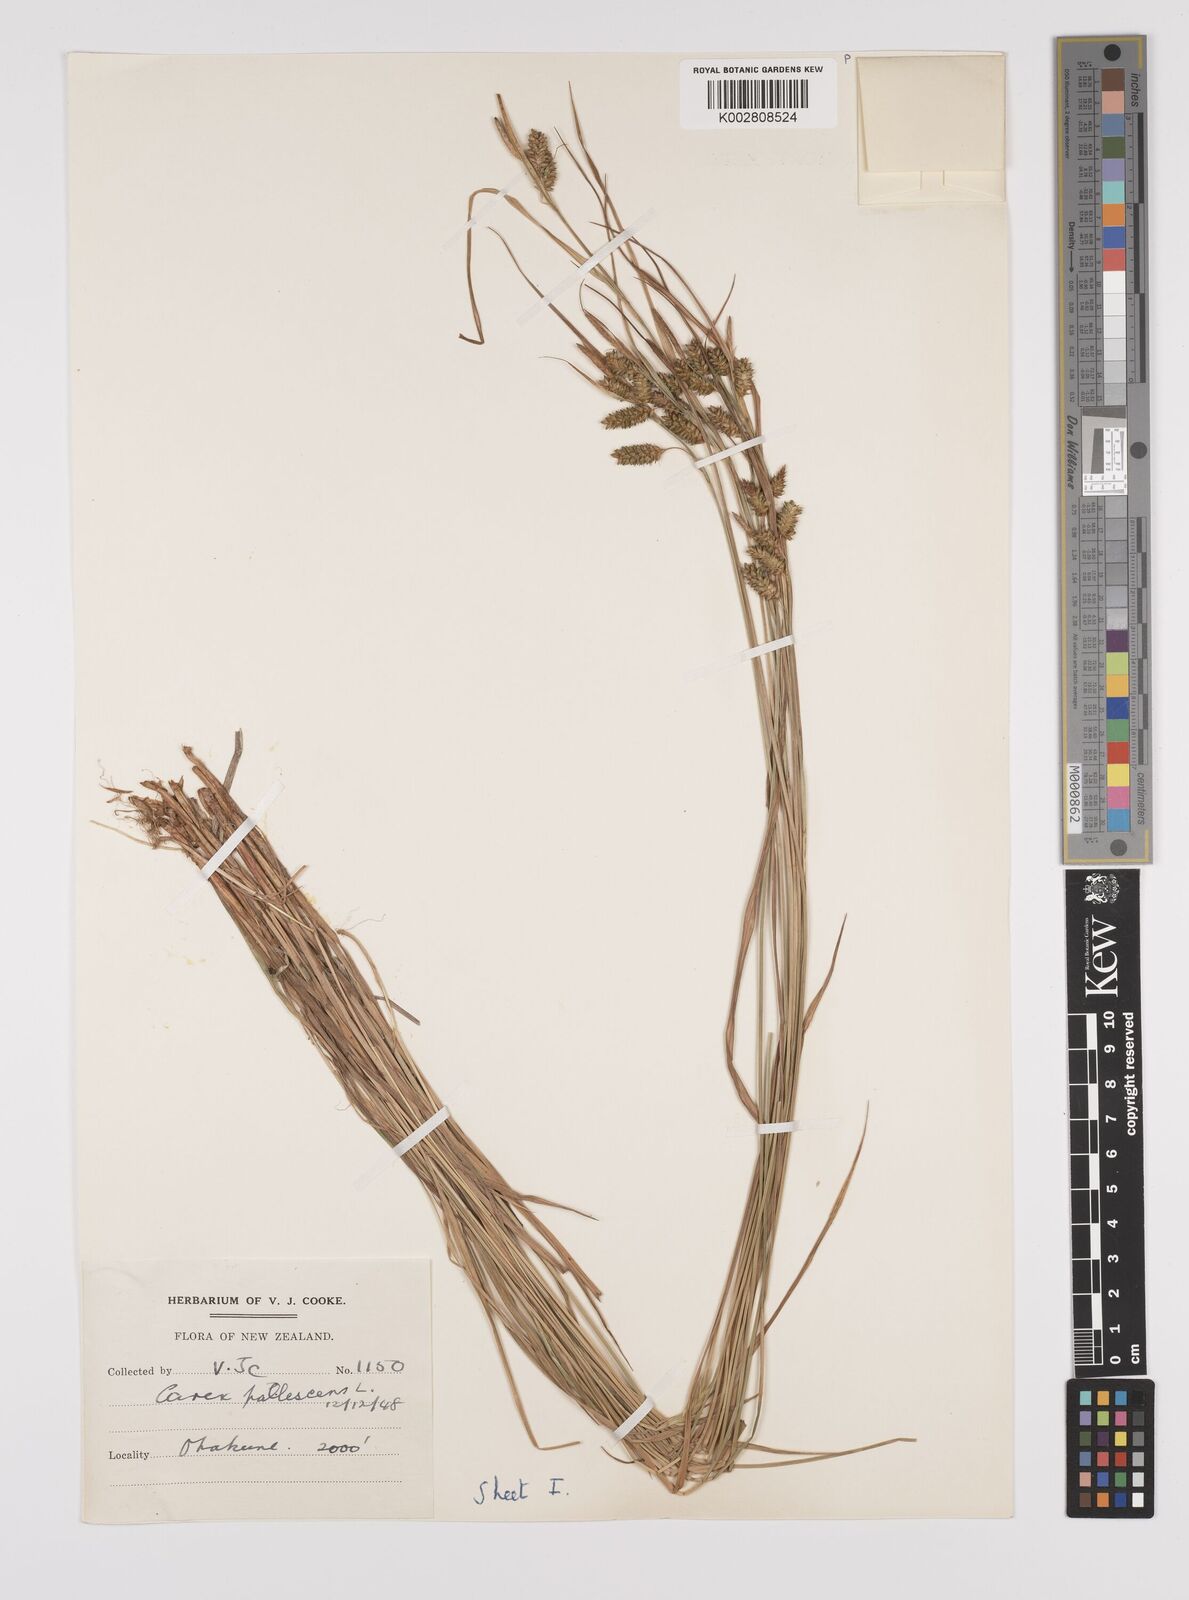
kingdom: Plantae
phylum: Tracheophyta
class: Liliopsida
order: Poales
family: Cyperaceae
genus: Carex
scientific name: Carex pallescens
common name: Pale sedge
